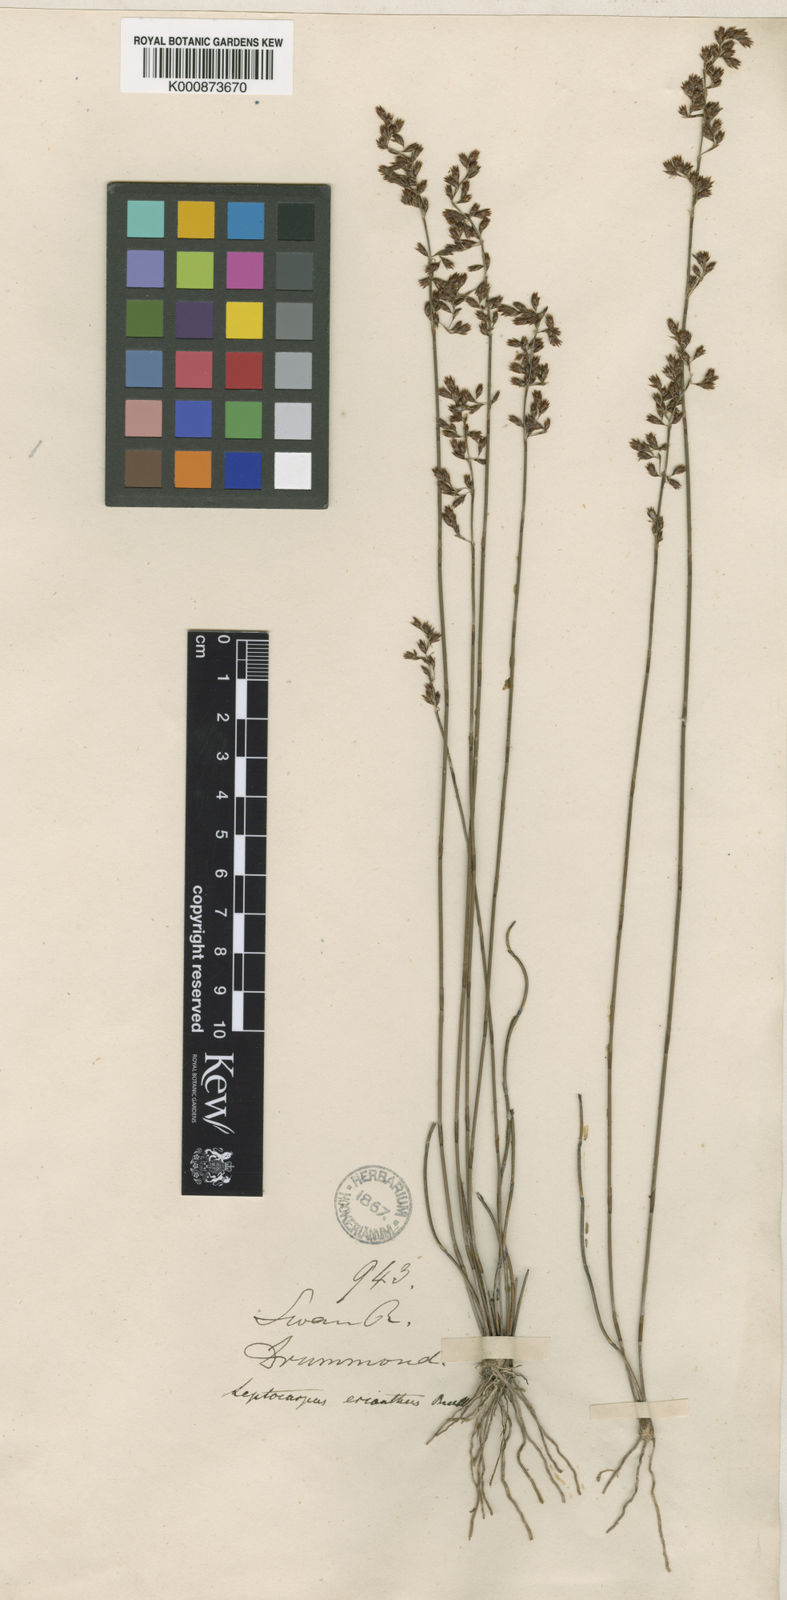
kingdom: Plantae
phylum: Tracheophyta
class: Liliopsida
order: Poales
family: Restionaceae
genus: Chaetanthus
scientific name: Chaetanthus aristatus
